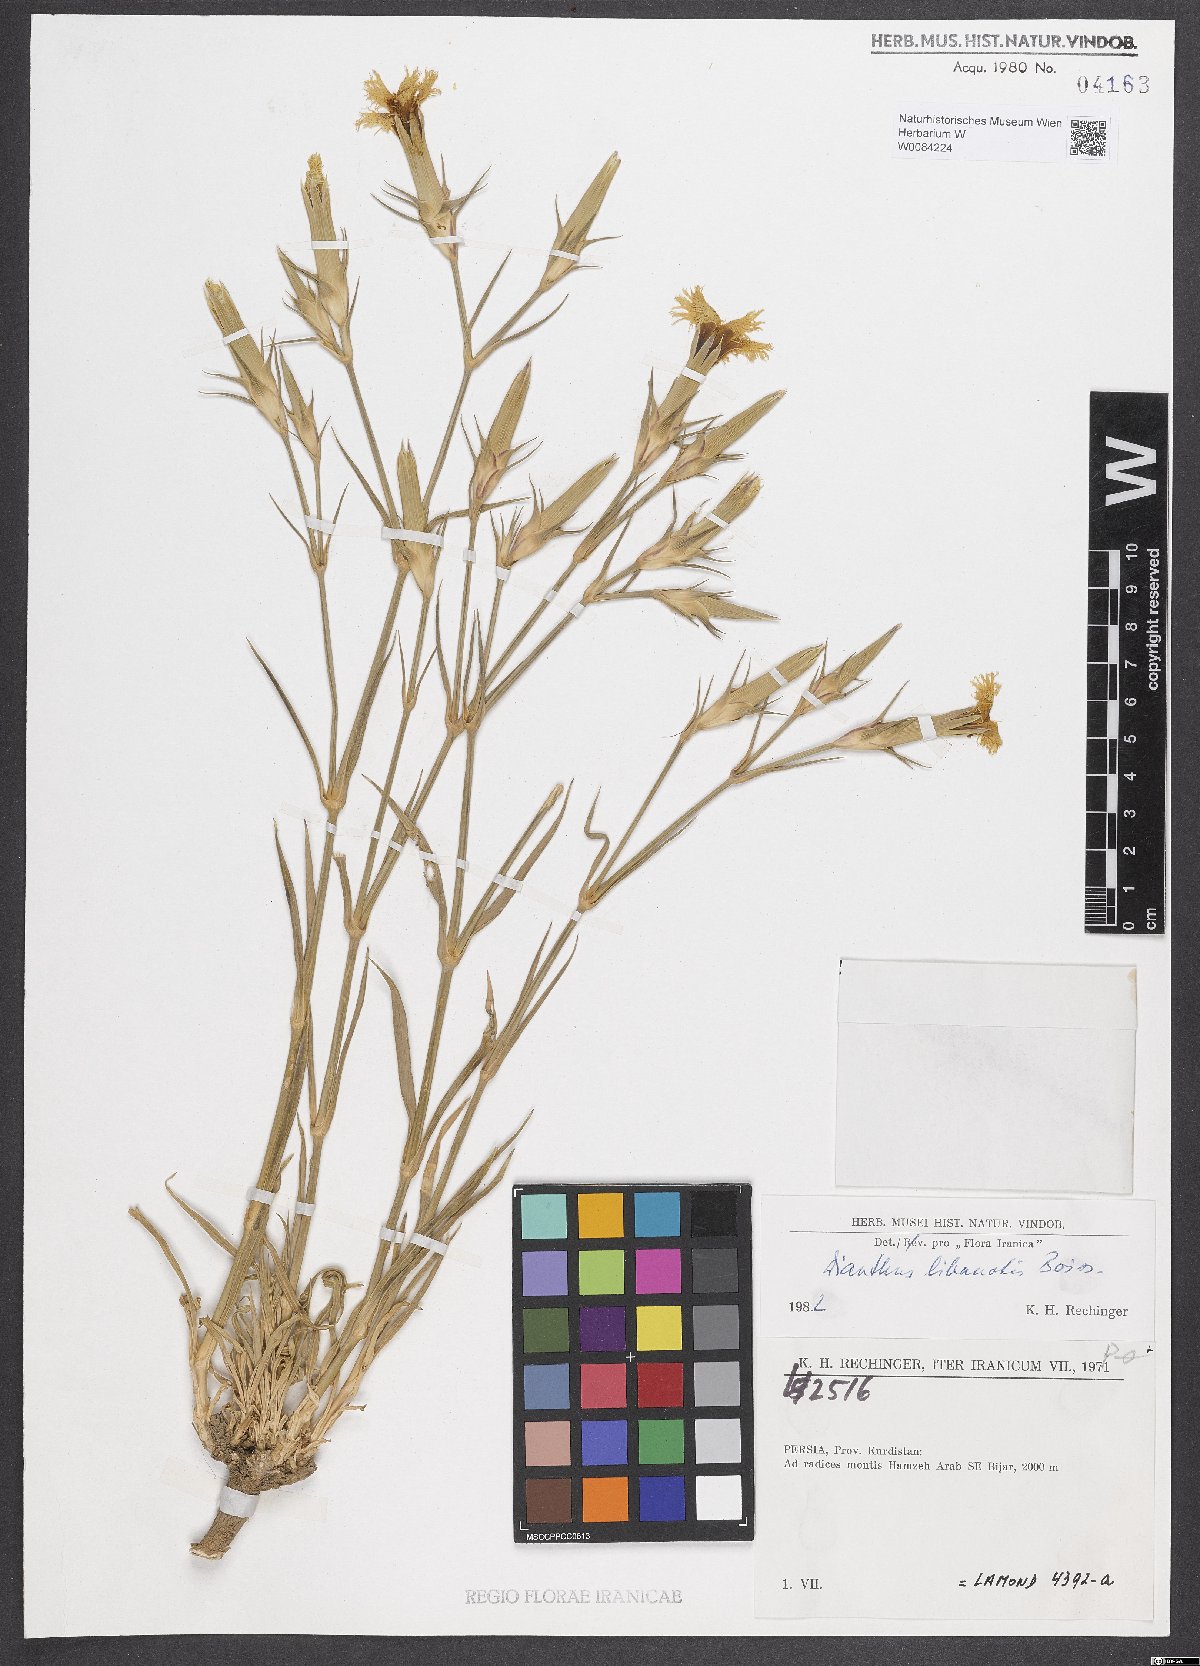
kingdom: Plantae
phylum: Tracheophyta
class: Magnoliopsida
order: Caryophyllales
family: Caryophyllaceae
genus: Dianthus
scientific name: Dianthus libanotis
